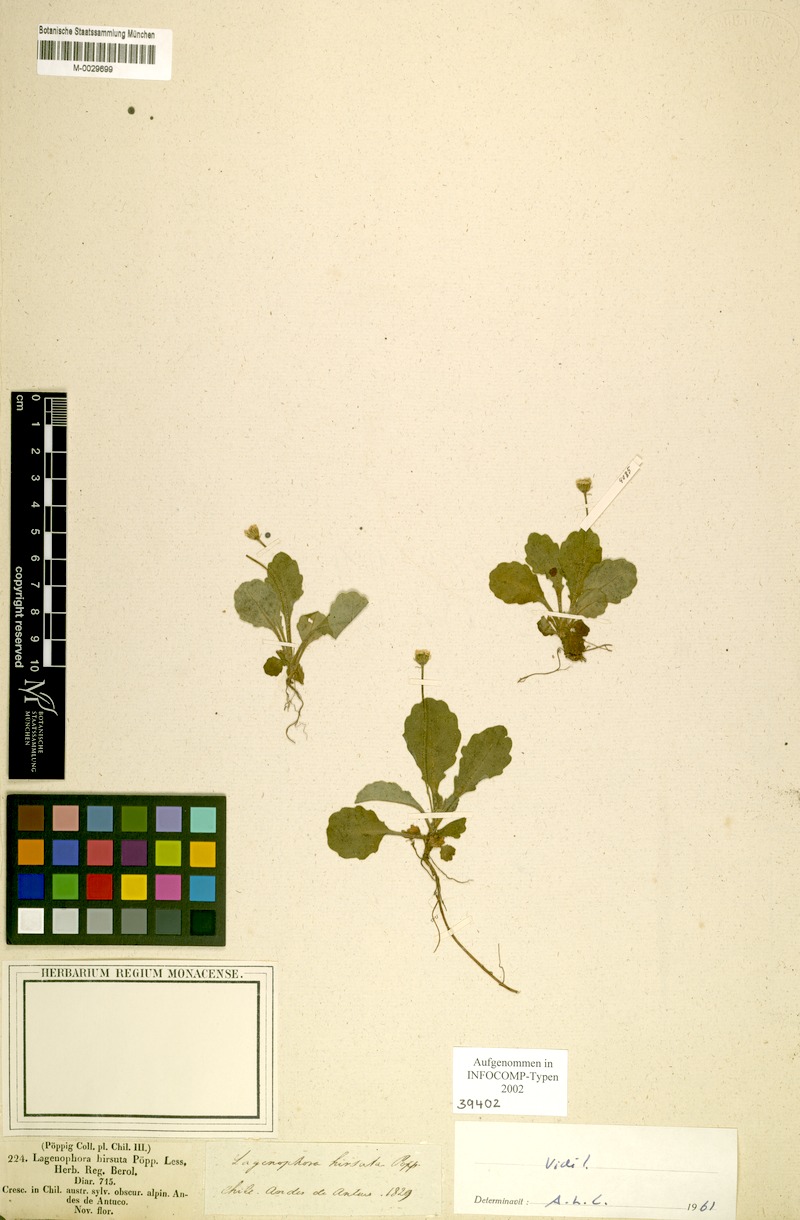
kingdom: Plantae
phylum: Tracheophyta
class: Magnoliopsida
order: Asterales
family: Asteraceae
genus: Lagenophora
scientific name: Lagenophora hirsuta
